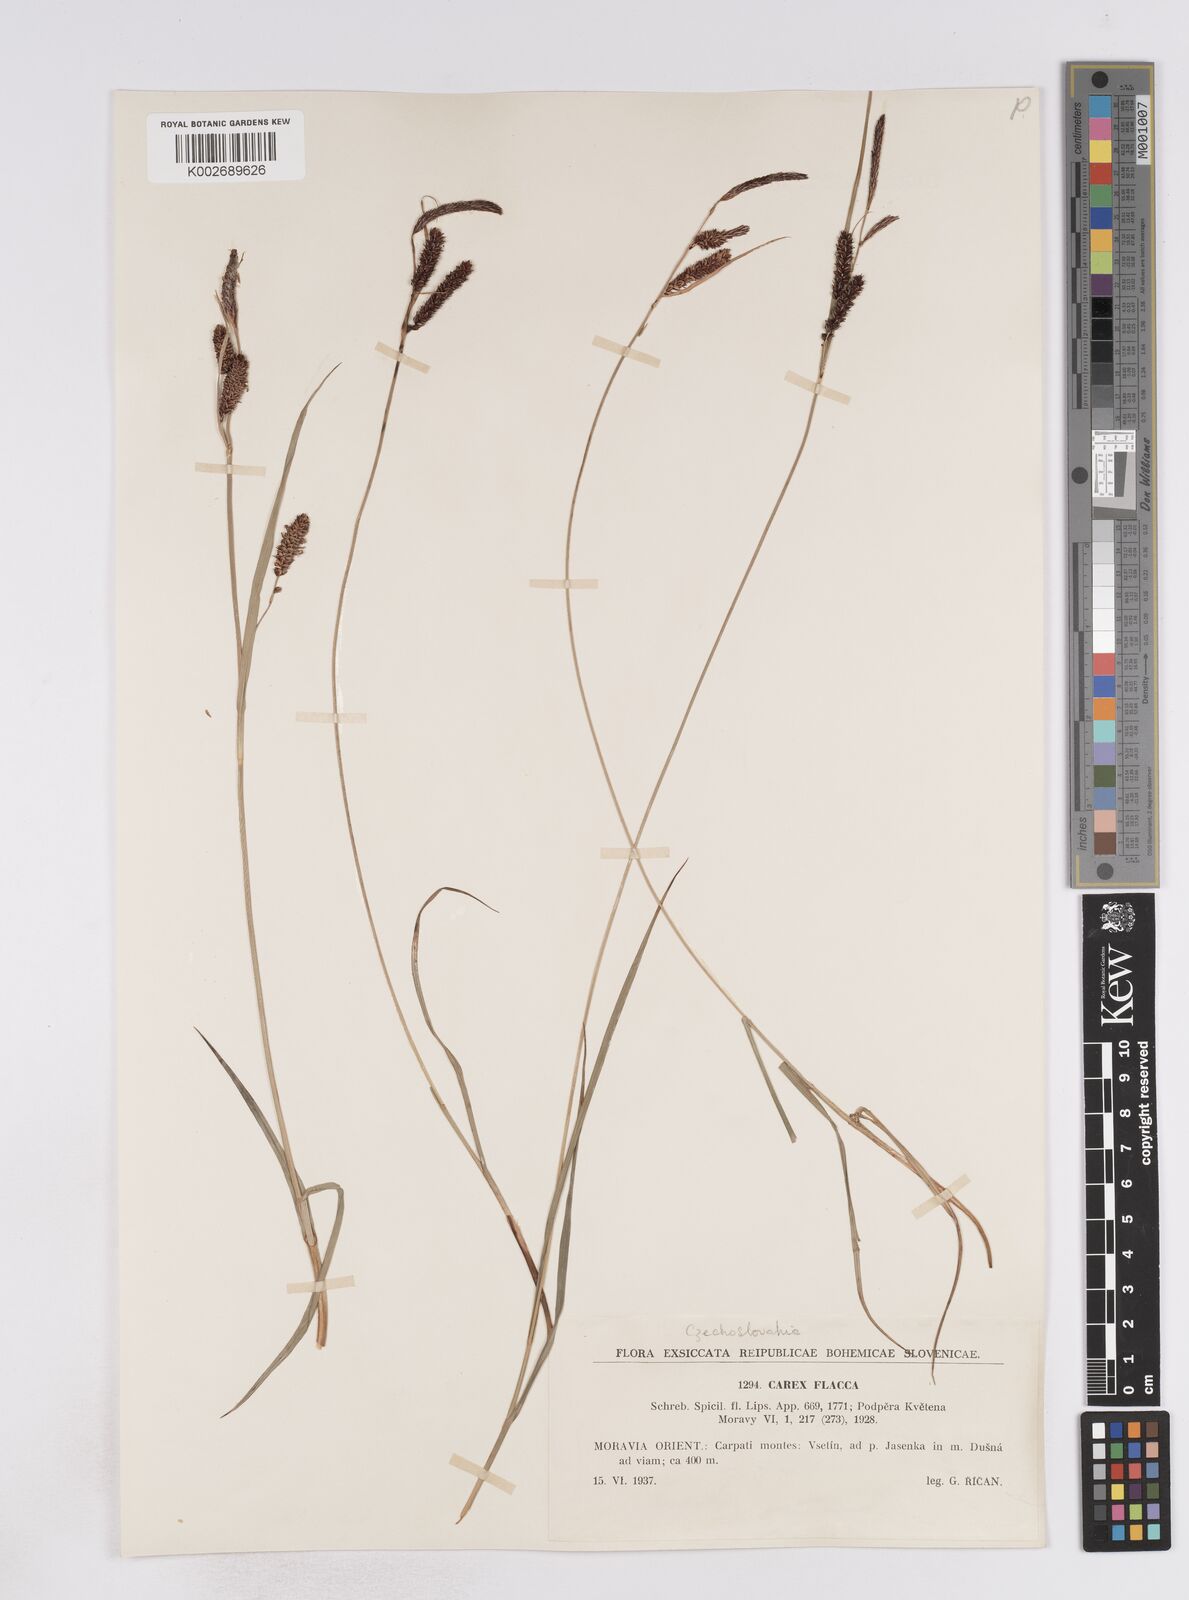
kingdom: Plantae
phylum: Tracheophyta
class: Liliopsida
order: Poales
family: Cyperaceae
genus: Carex
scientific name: Carex flacca
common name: Glaucous sedge
